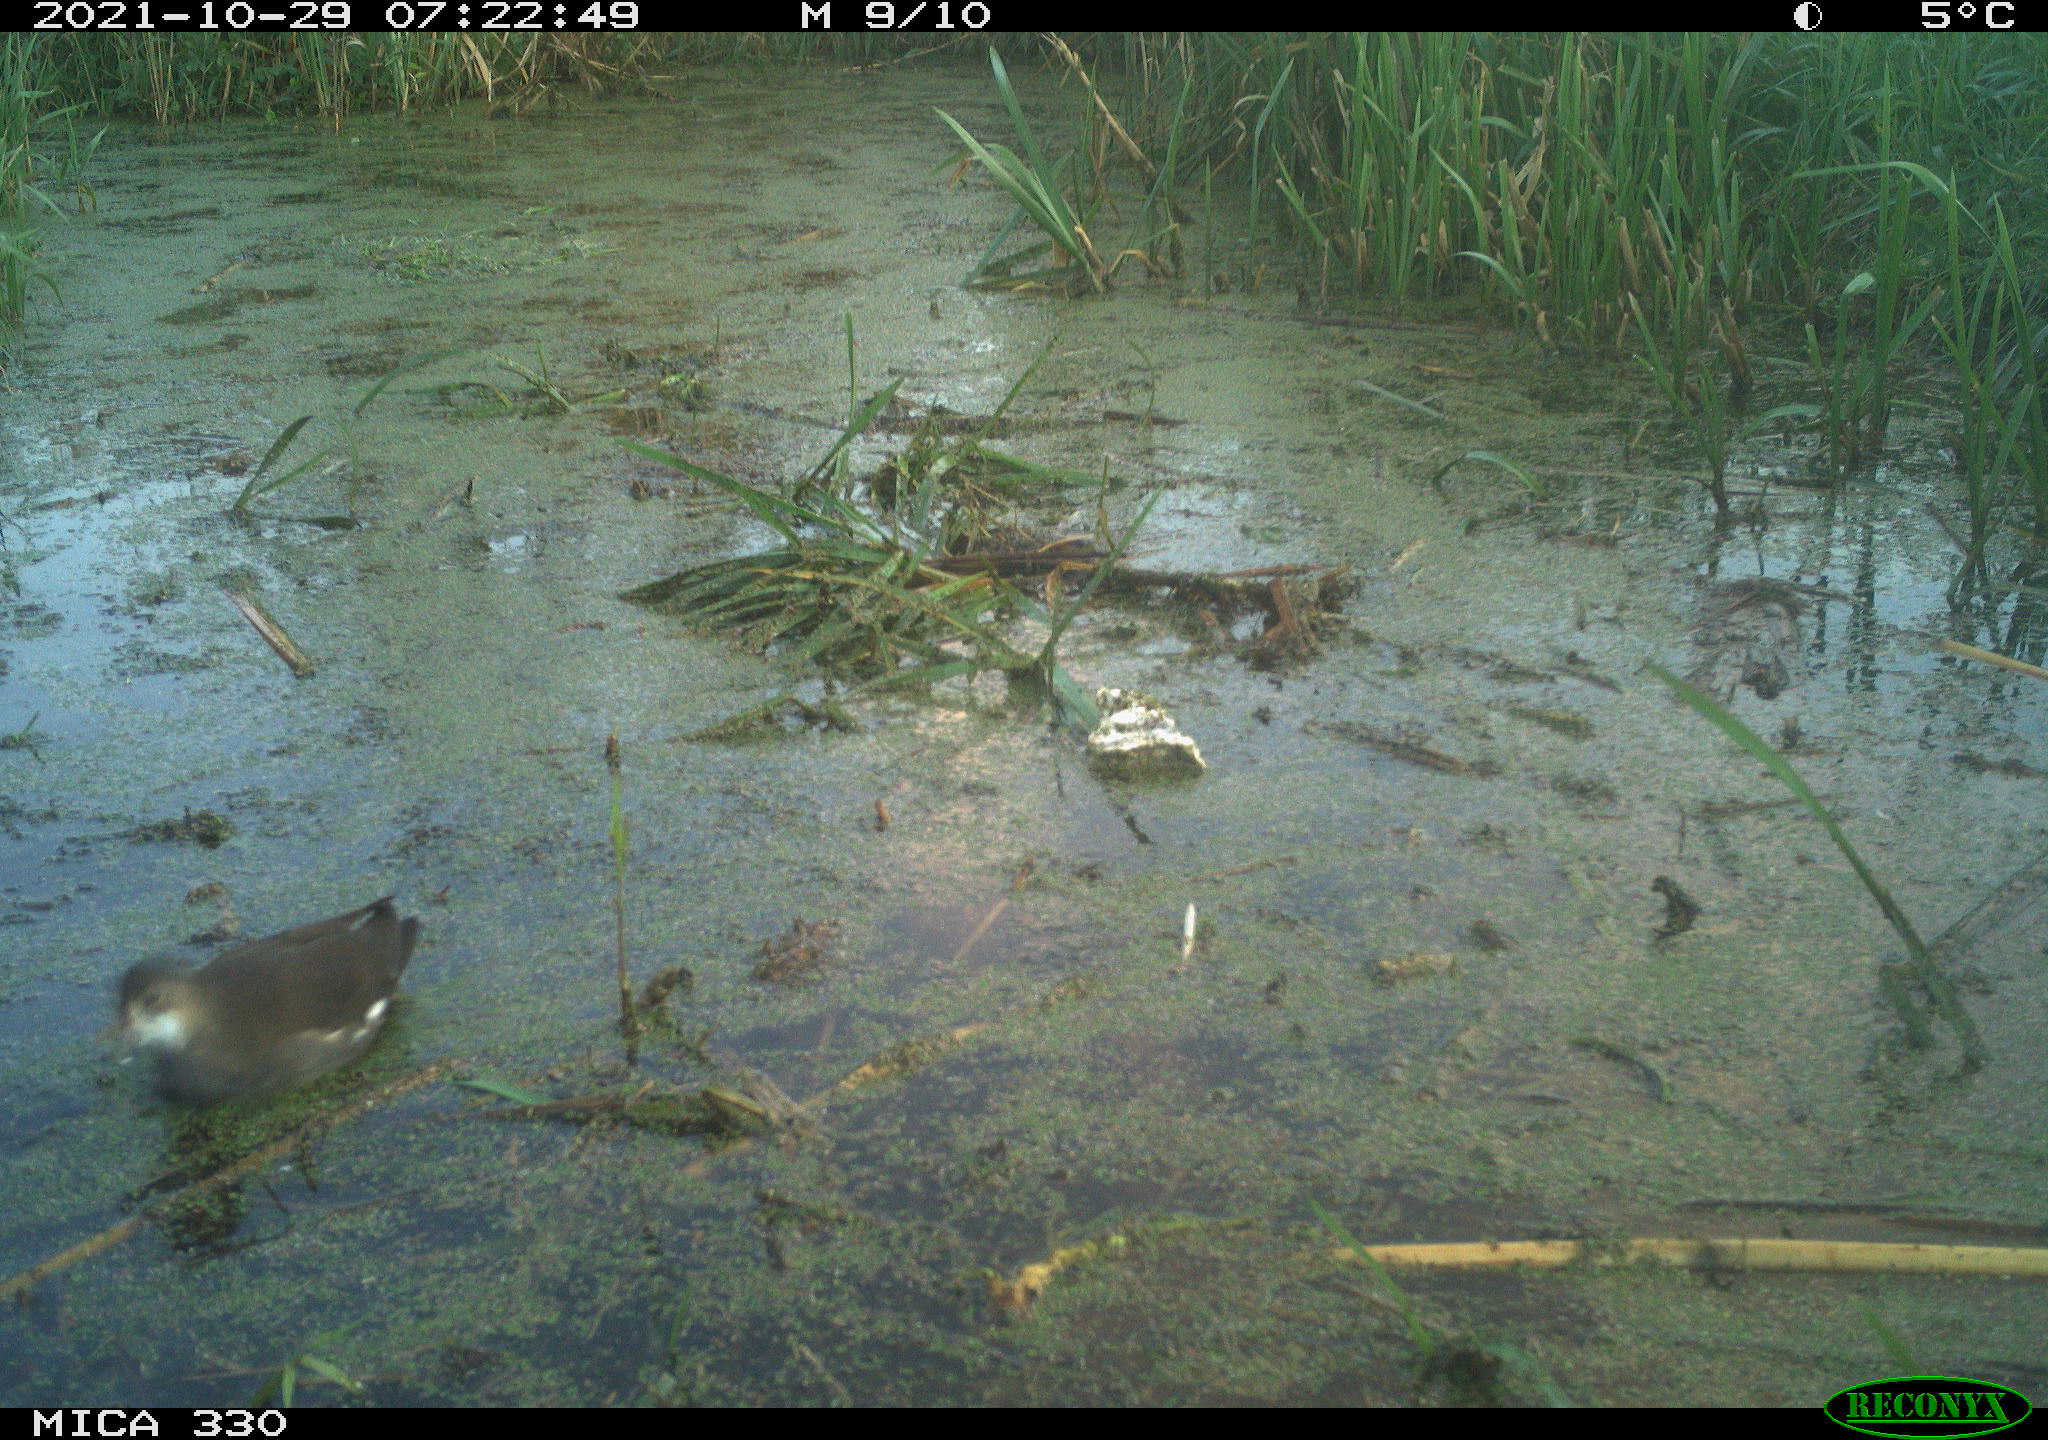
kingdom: Animalia
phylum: Chordata
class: Aves
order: Gruiformes
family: Rallidae
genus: Gallinula
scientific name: Gallinula chloropus
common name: Common moorhen
